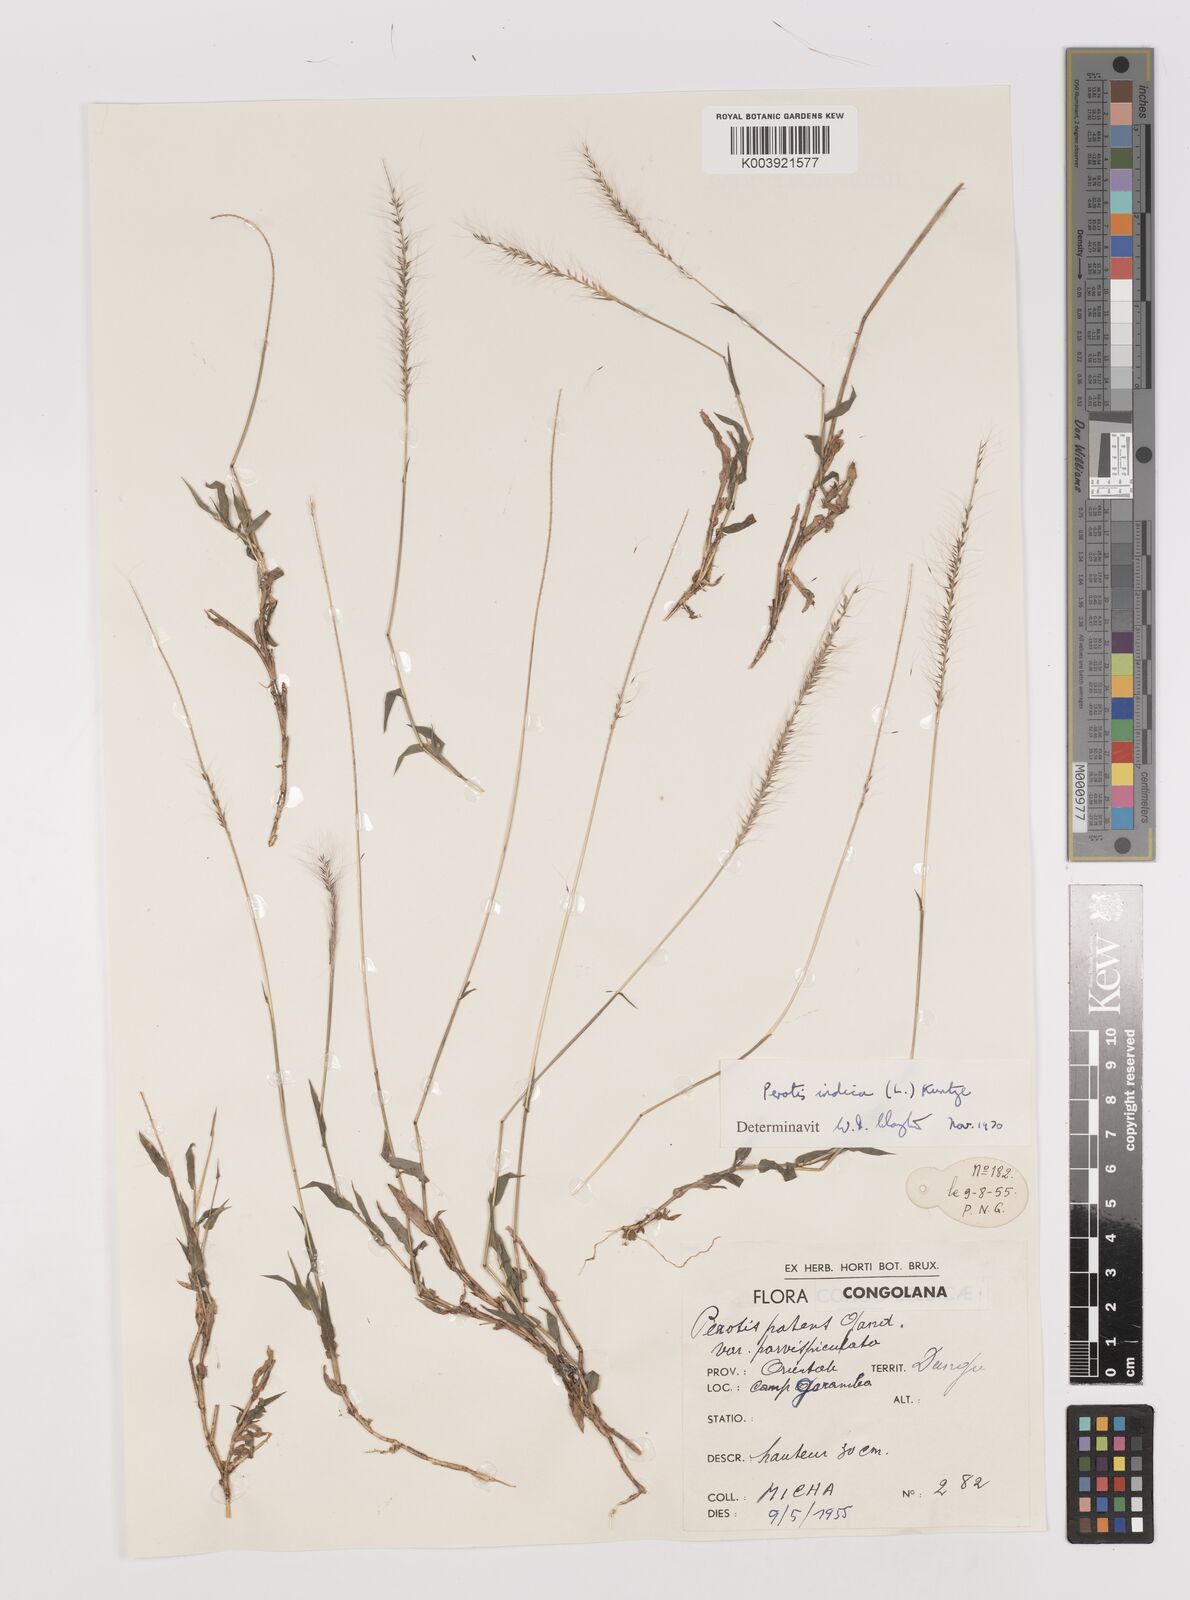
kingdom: Plantae
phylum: Tracheophyta
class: Liliopsida
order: Poales
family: Poaceae
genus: Perotis
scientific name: Perotis indica
